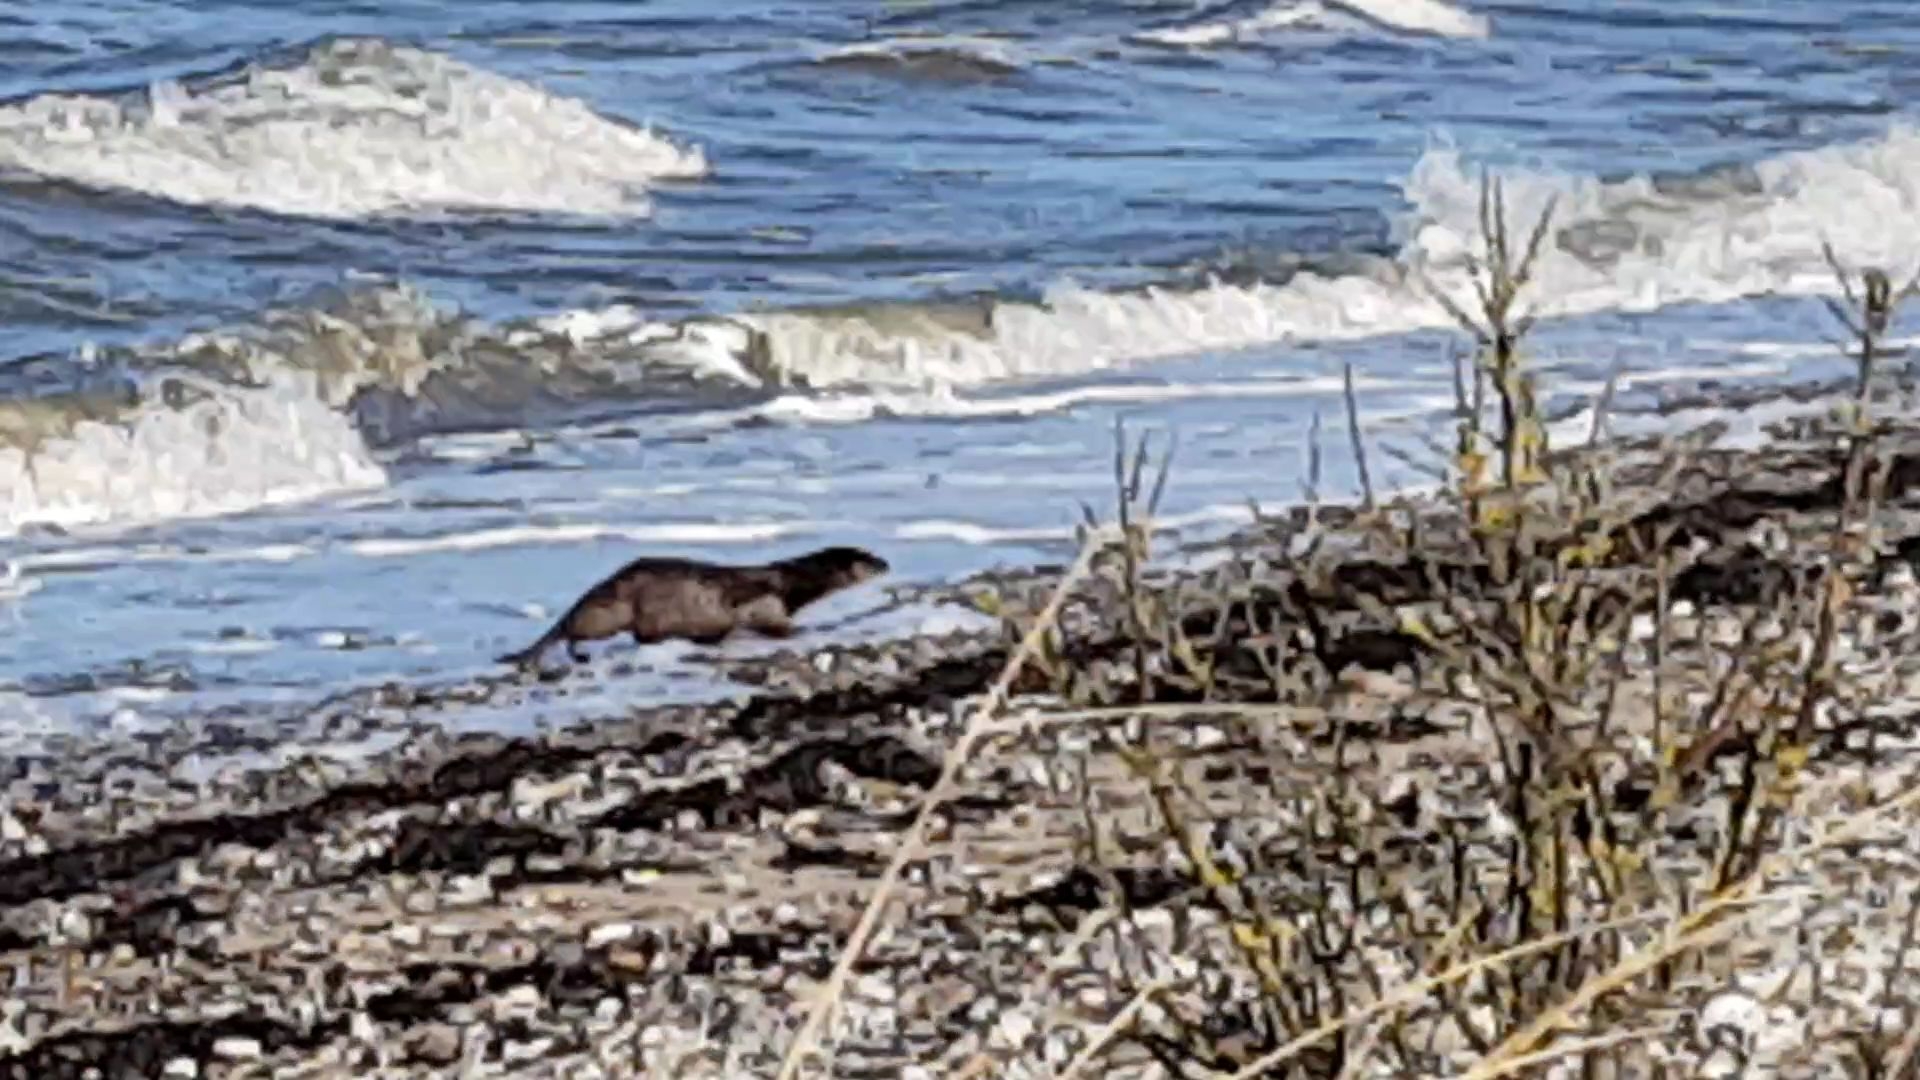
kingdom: Animalia
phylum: Chordata
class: Mammalia
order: Carnivora
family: Mustelidae
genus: Lutra
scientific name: Lutra lutra
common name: Odder
